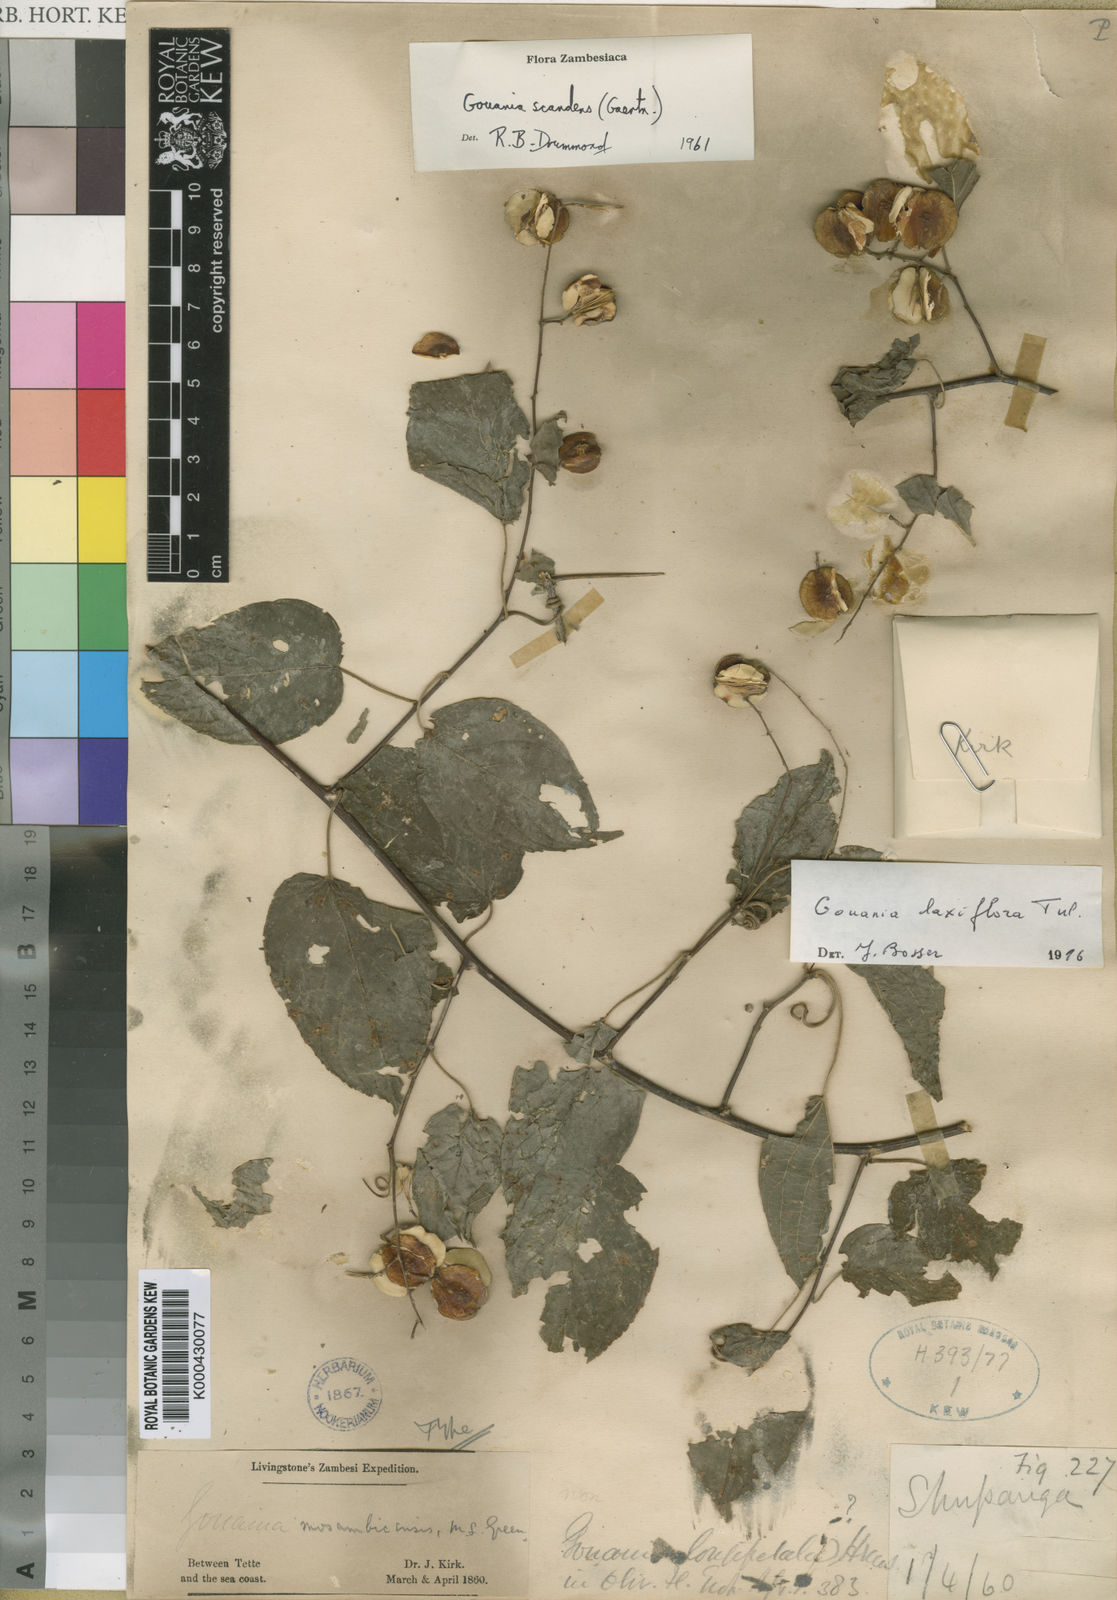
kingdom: Plantae
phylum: Tracheophyta
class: Magnoliopsida
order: Rosales
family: Rhamnaceae
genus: Gouania
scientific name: Gouania laxiflora
